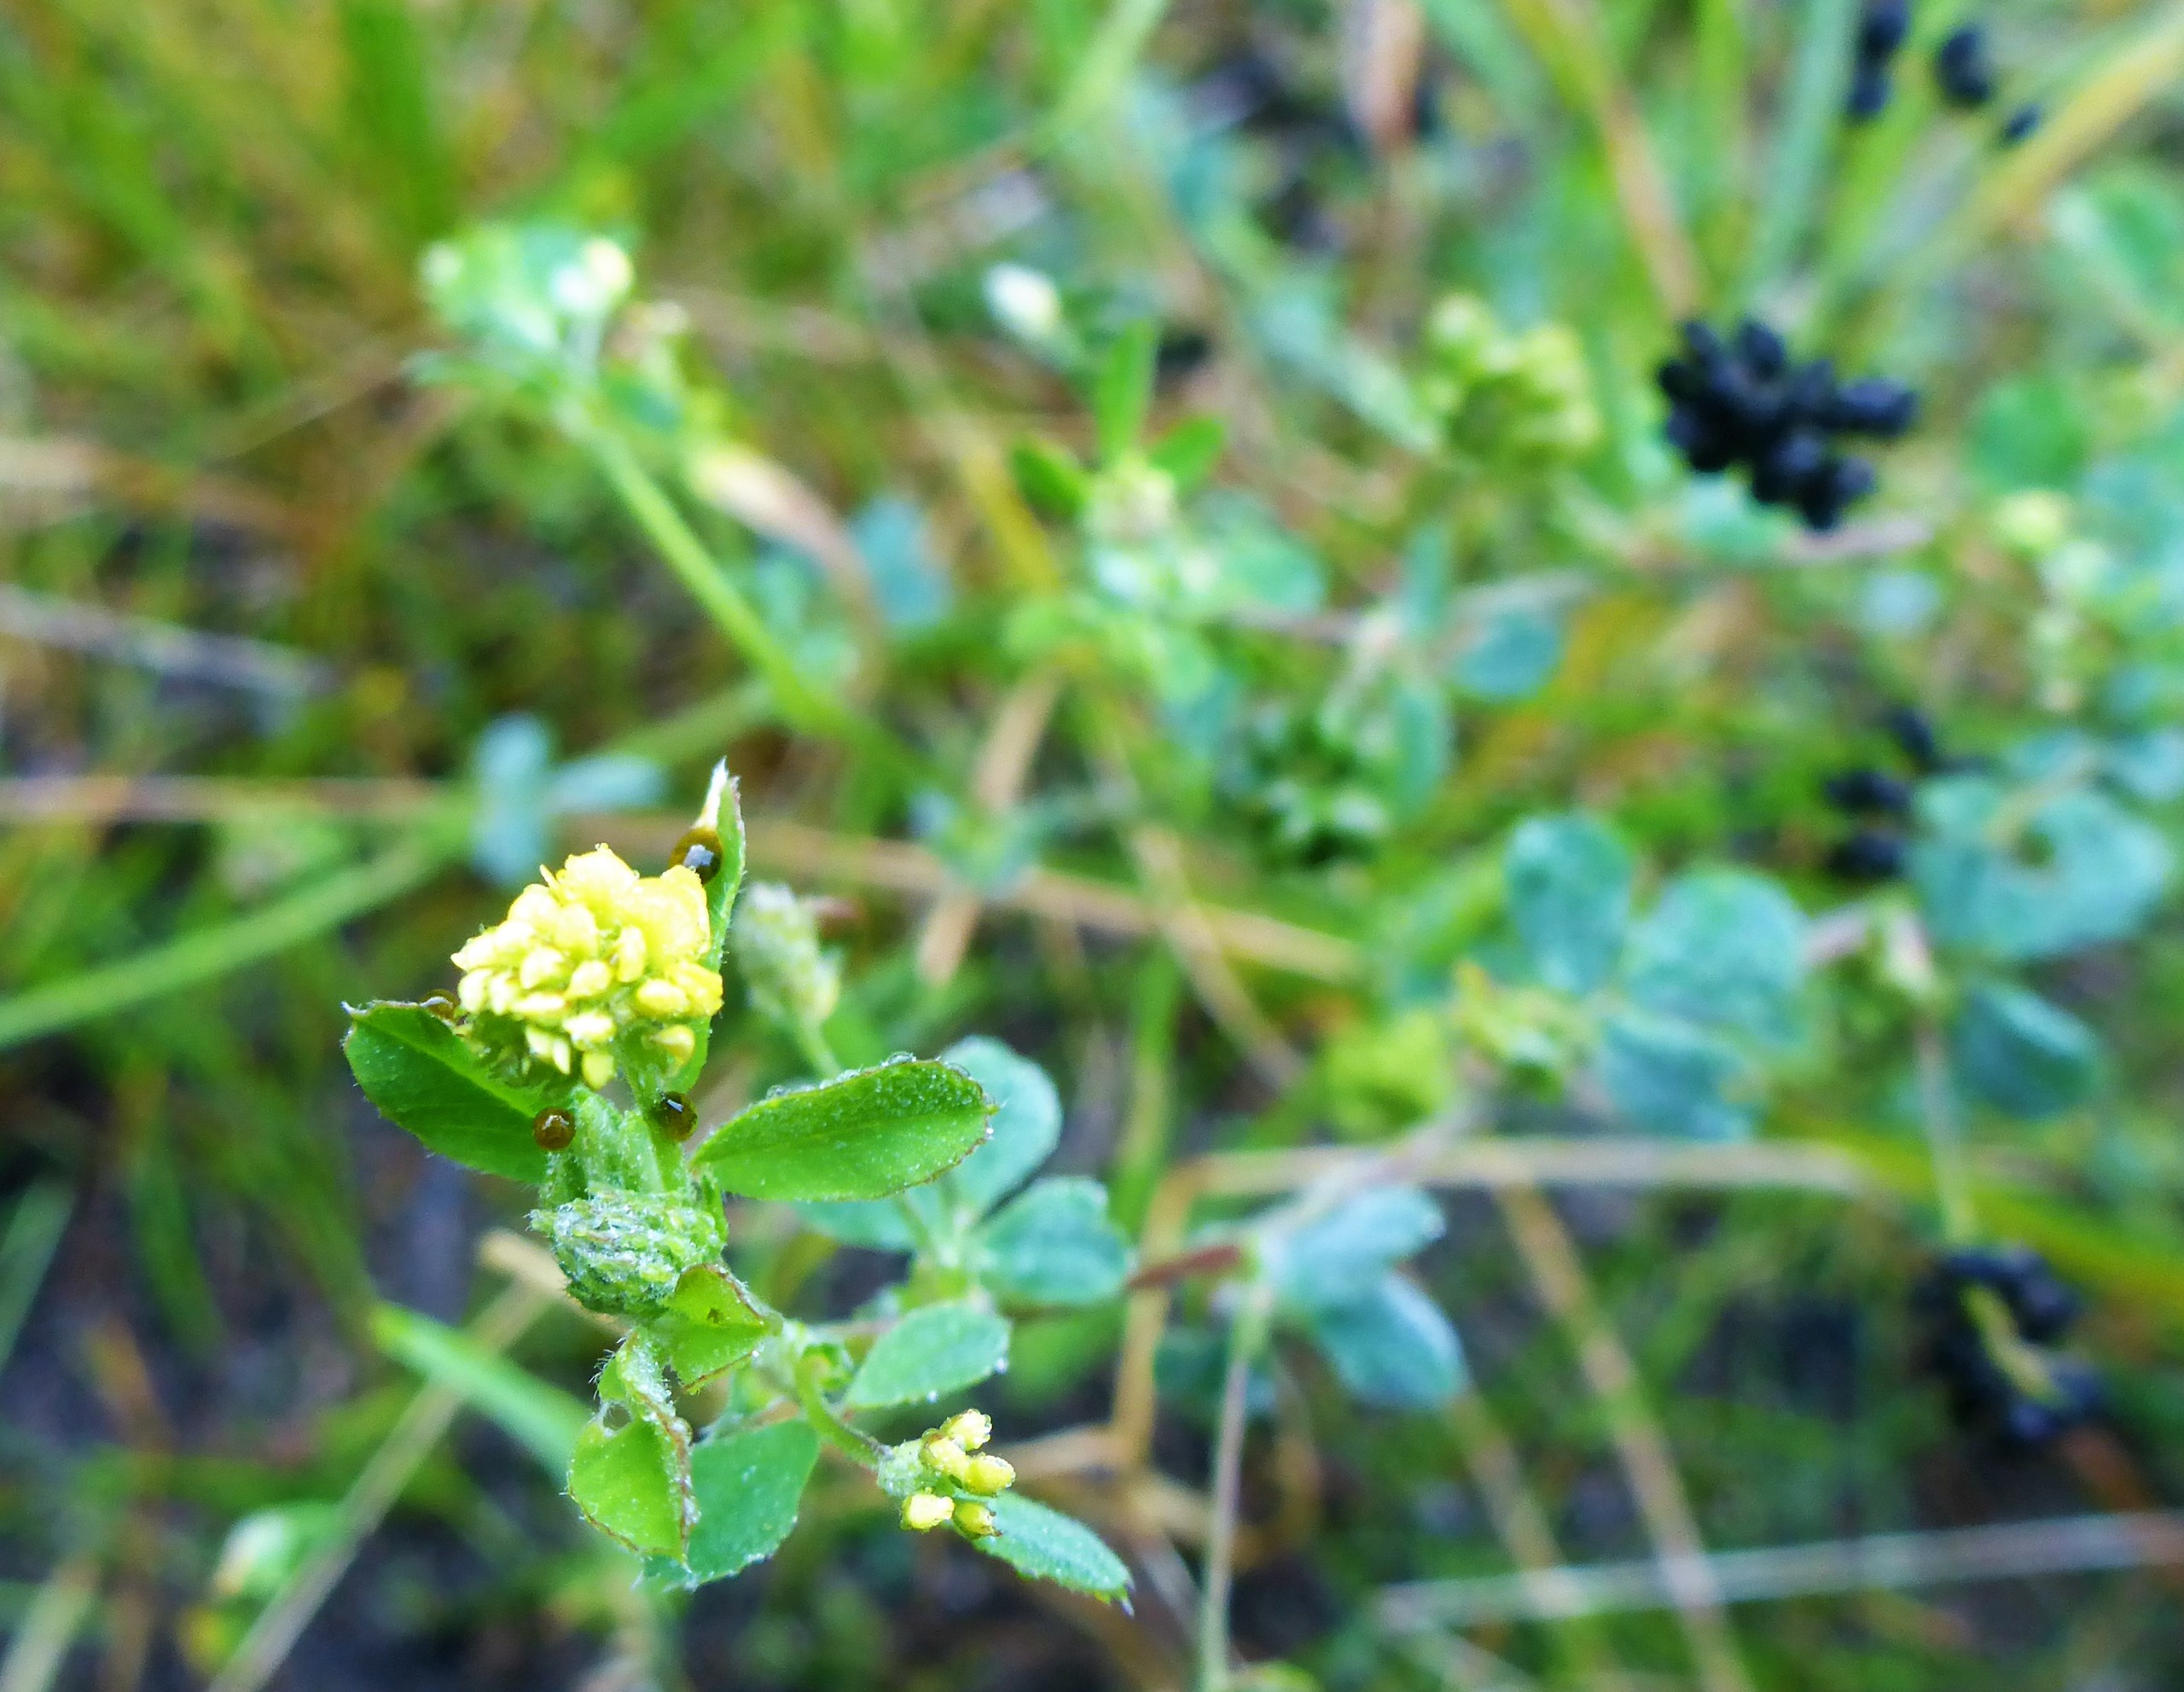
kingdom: Plantae
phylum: Tracheophyta
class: Magnoliopsida
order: Fabales
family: Fabaceae
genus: Medicago
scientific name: Medicago lupulina
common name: Humle-sneglebælg
